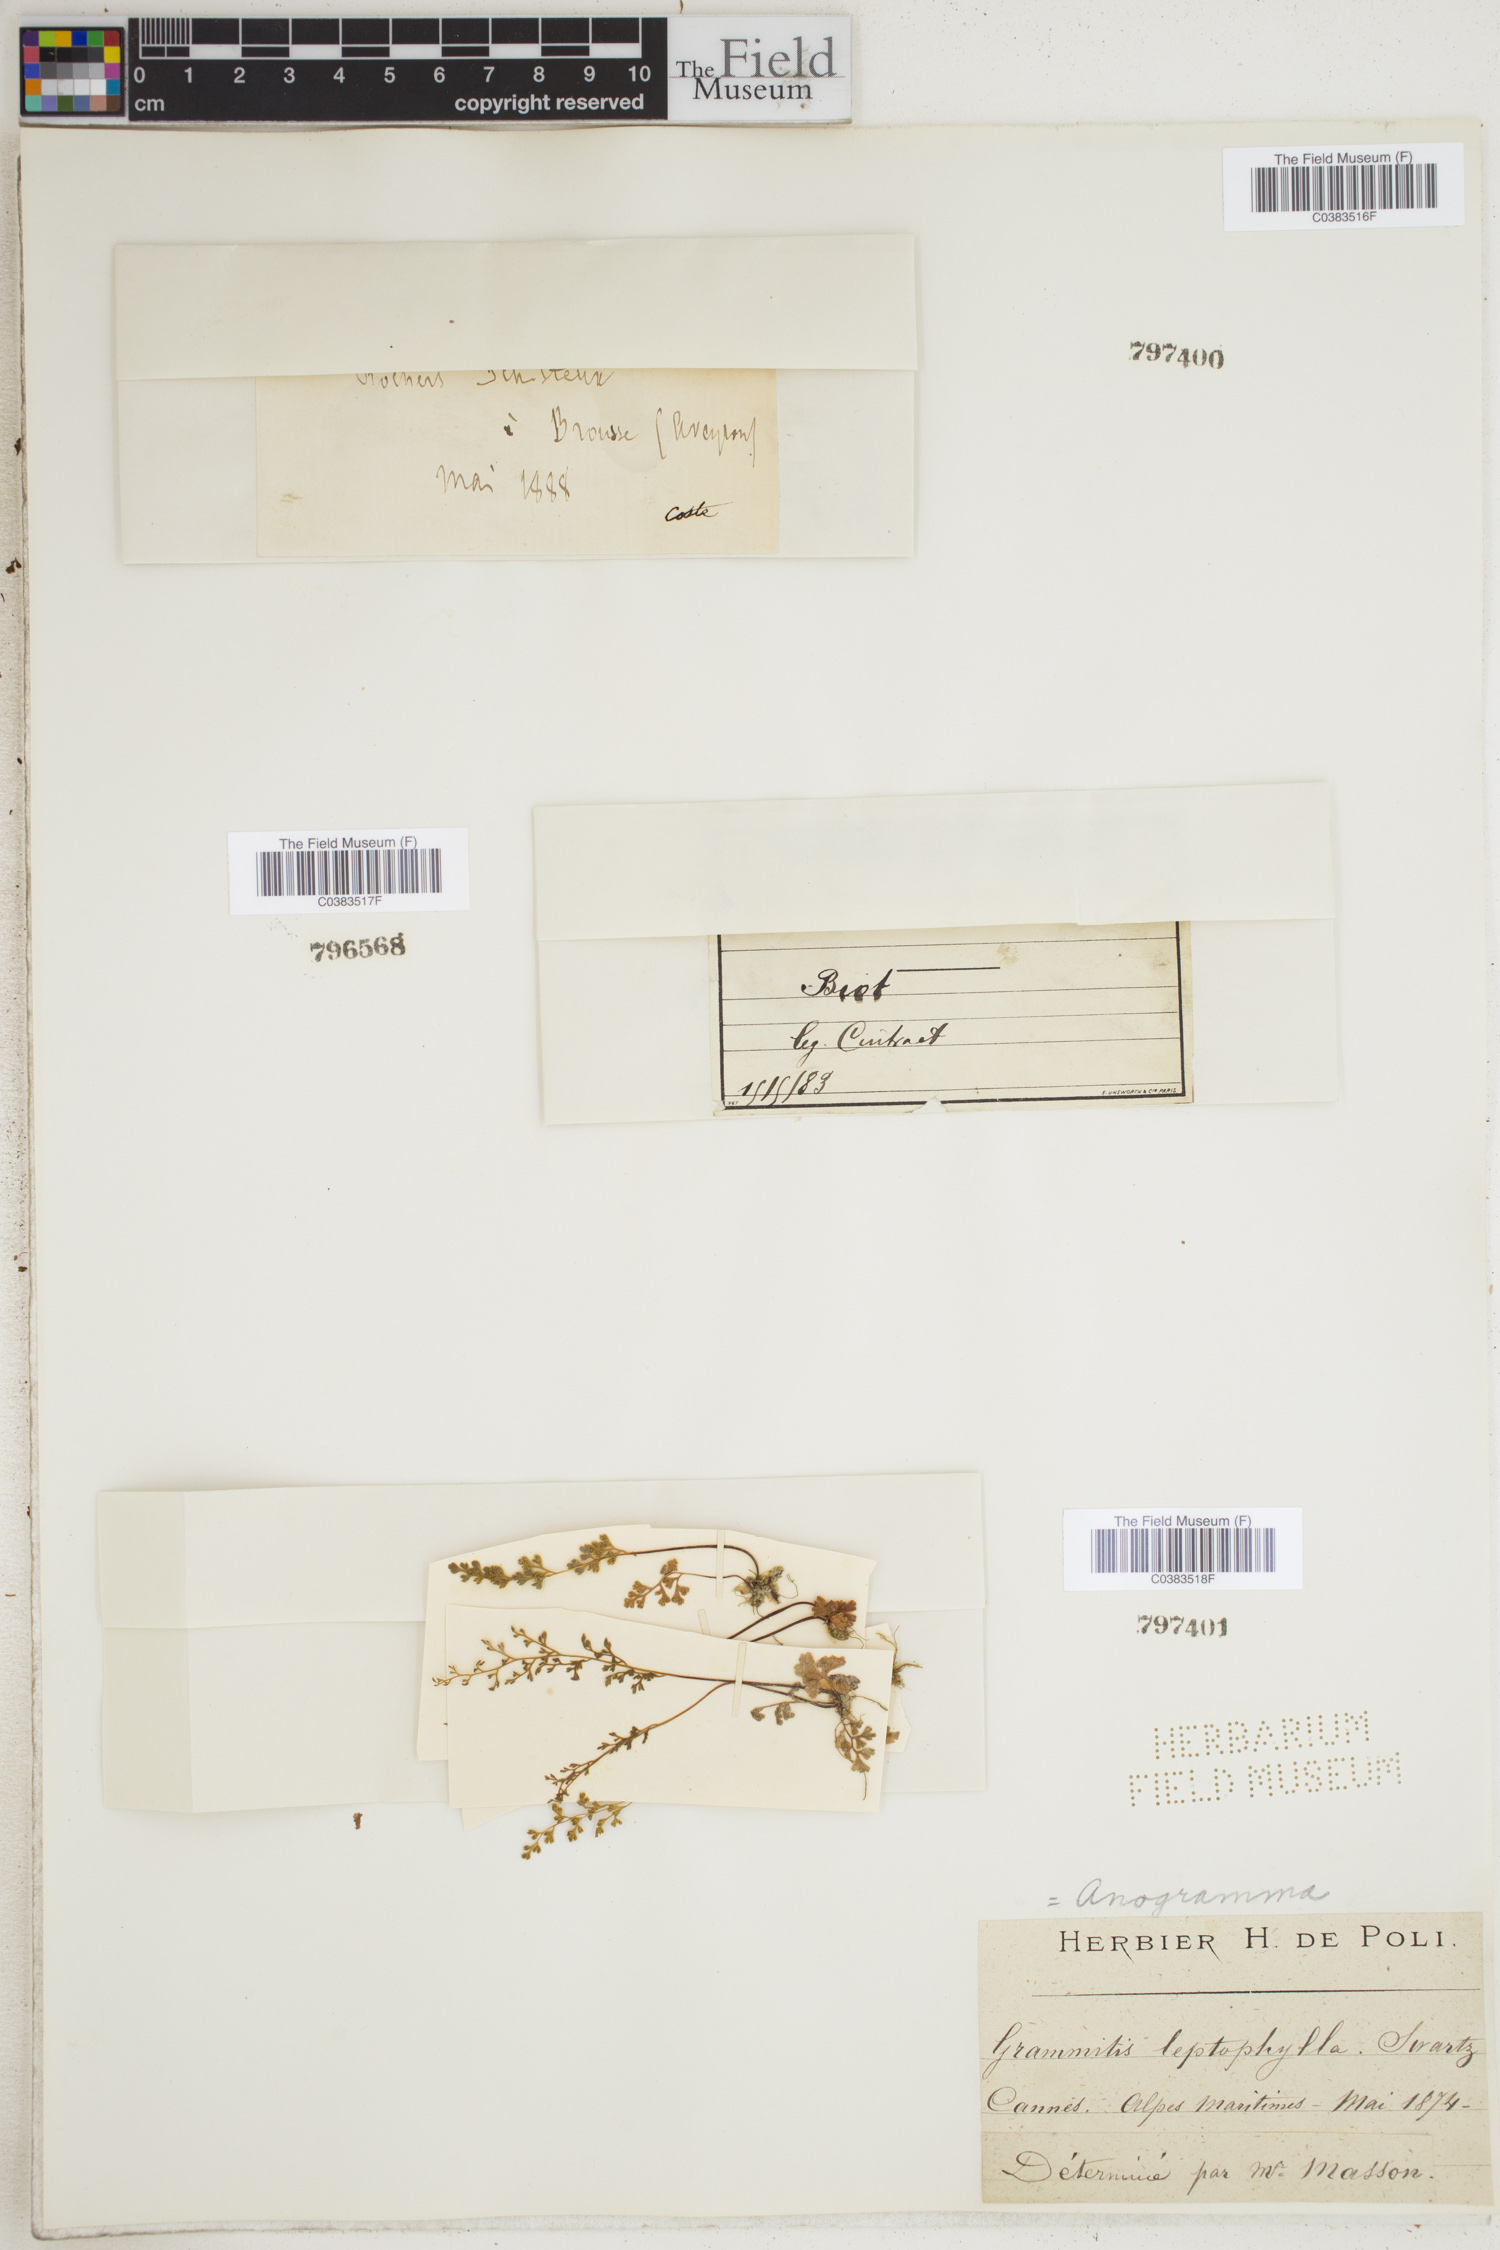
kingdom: Plantae
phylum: Tracheophyta
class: Polypodiopsida
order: Polypodiales
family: Pteridaceae
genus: Anogramma
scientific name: Anogramma leptophylla
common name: Jersey fern
